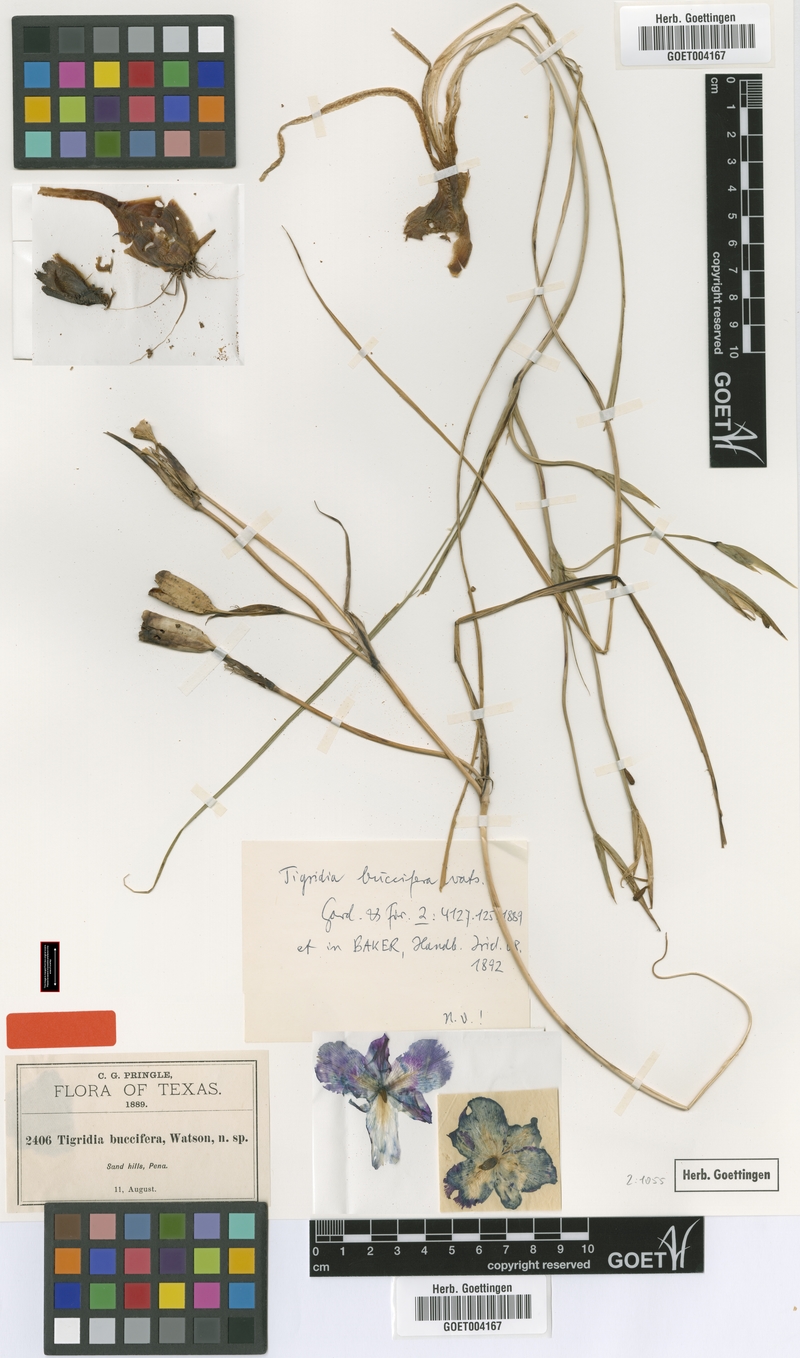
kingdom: Plantae
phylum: Tracheophyta
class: Liliopsida
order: Asparagales
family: Iridaceae
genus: Alophia
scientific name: Alophia drummondii
